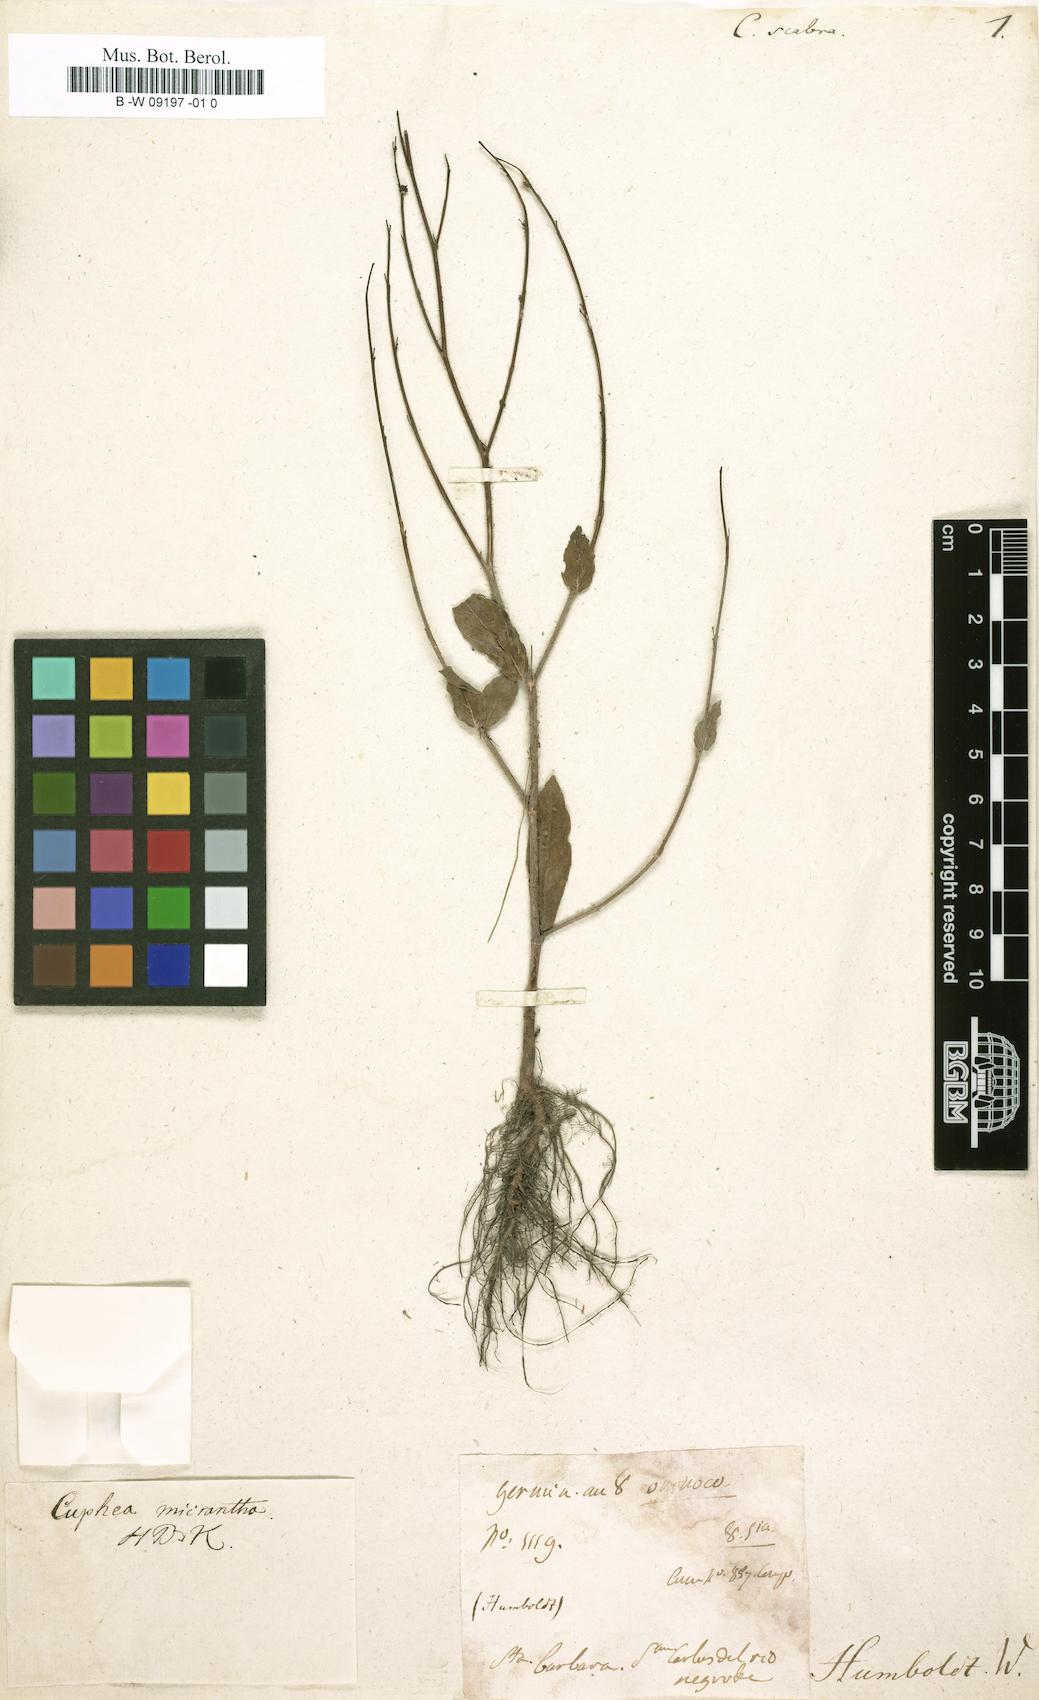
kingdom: Plantae
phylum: Tracheophyta
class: Magnoliopsida
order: Myrtales
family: Lythraceae
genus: Cuphea
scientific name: Cuphea aperta
